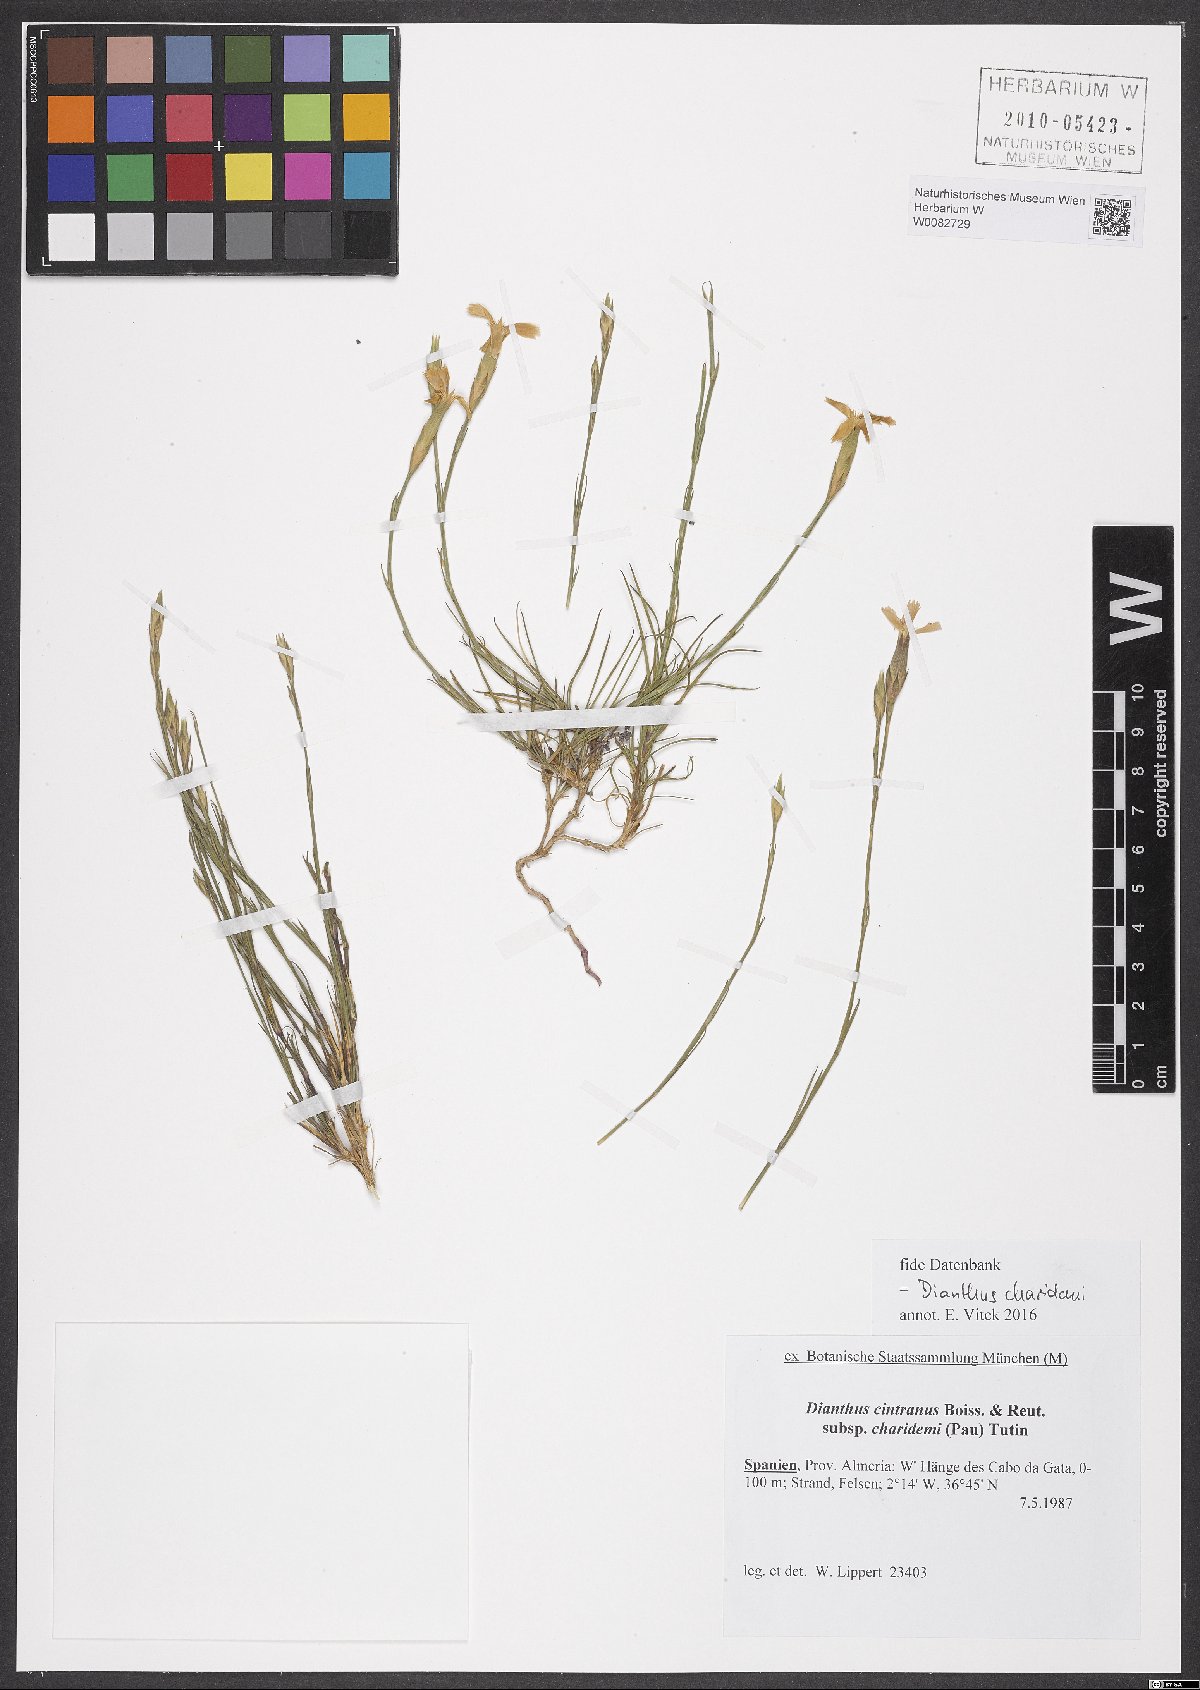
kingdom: Plantae
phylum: Tracheophyta
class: Magnoliopsida
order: Caryophyllales
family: Caryophyllaceae
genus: Dianthus
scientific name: Dianthus charidemi
